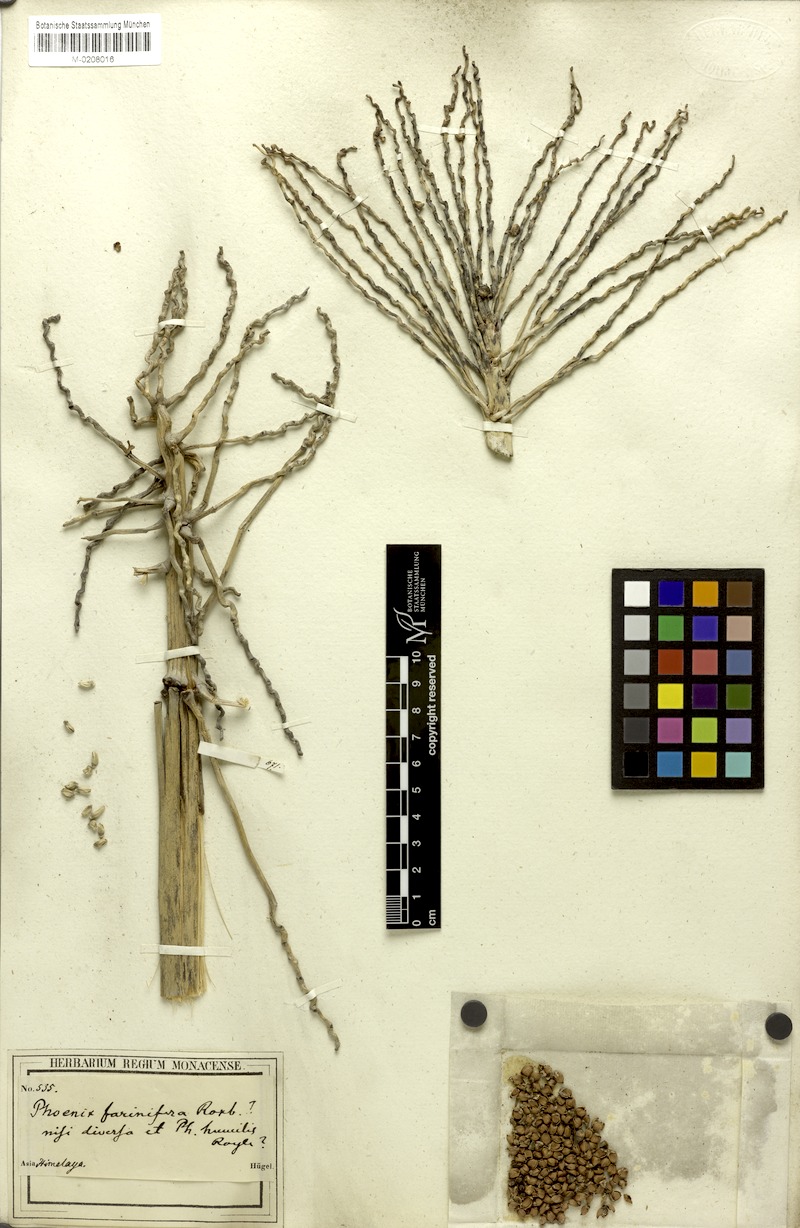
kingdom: Plantae
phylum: Tracheophyta
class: Liliopsida
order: Arecales
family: Arecaceae
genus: Phoenix
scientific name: Phoenix pusilla
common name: Flour palm
